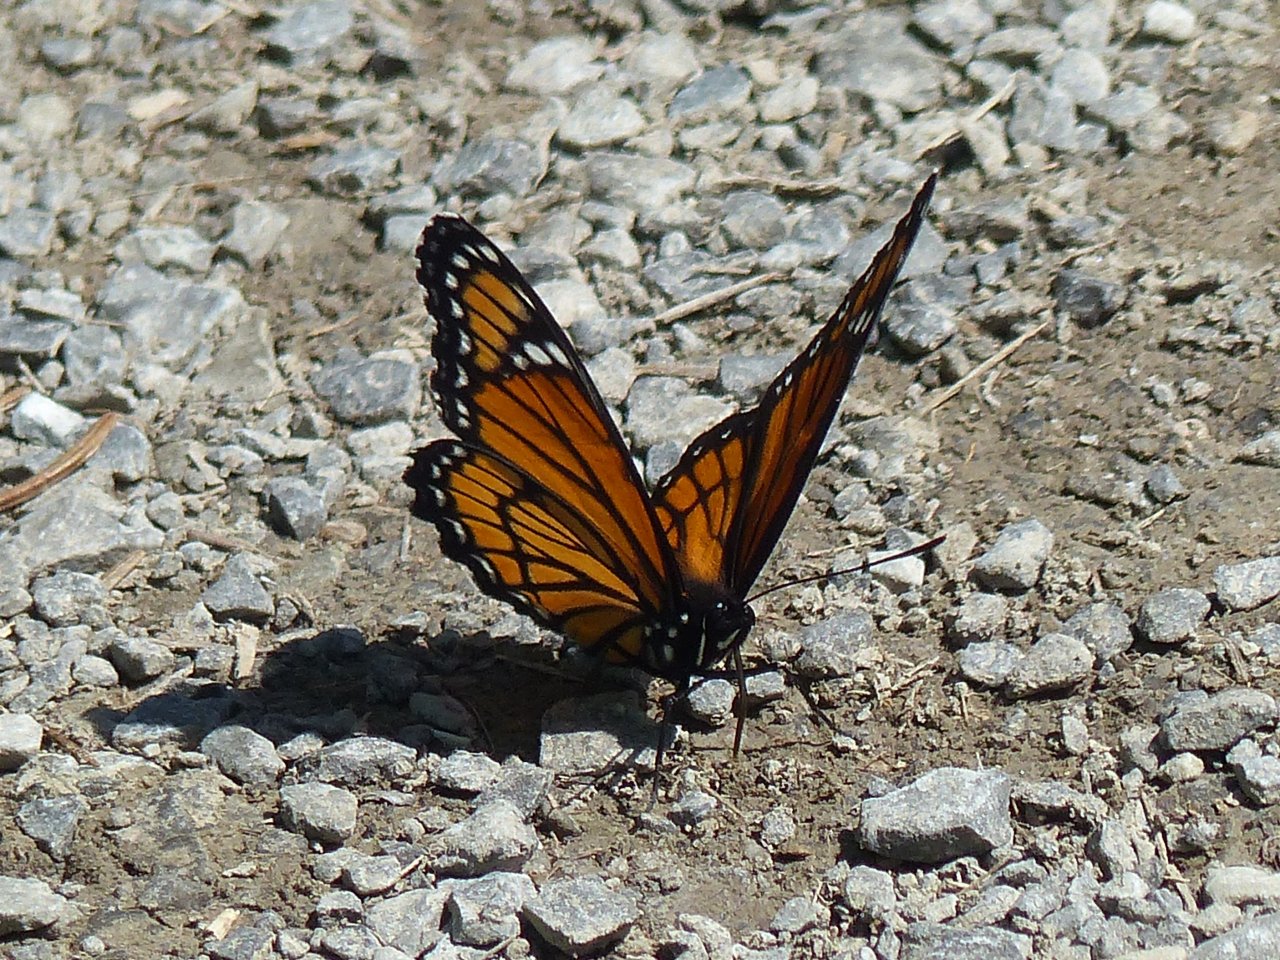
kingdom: Animalia
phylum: Arthropoda
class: Insecta
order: Lepidoptera
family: Nymphalidae
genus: Limenitis
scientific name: Limenitis archippus
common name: Viceroy
